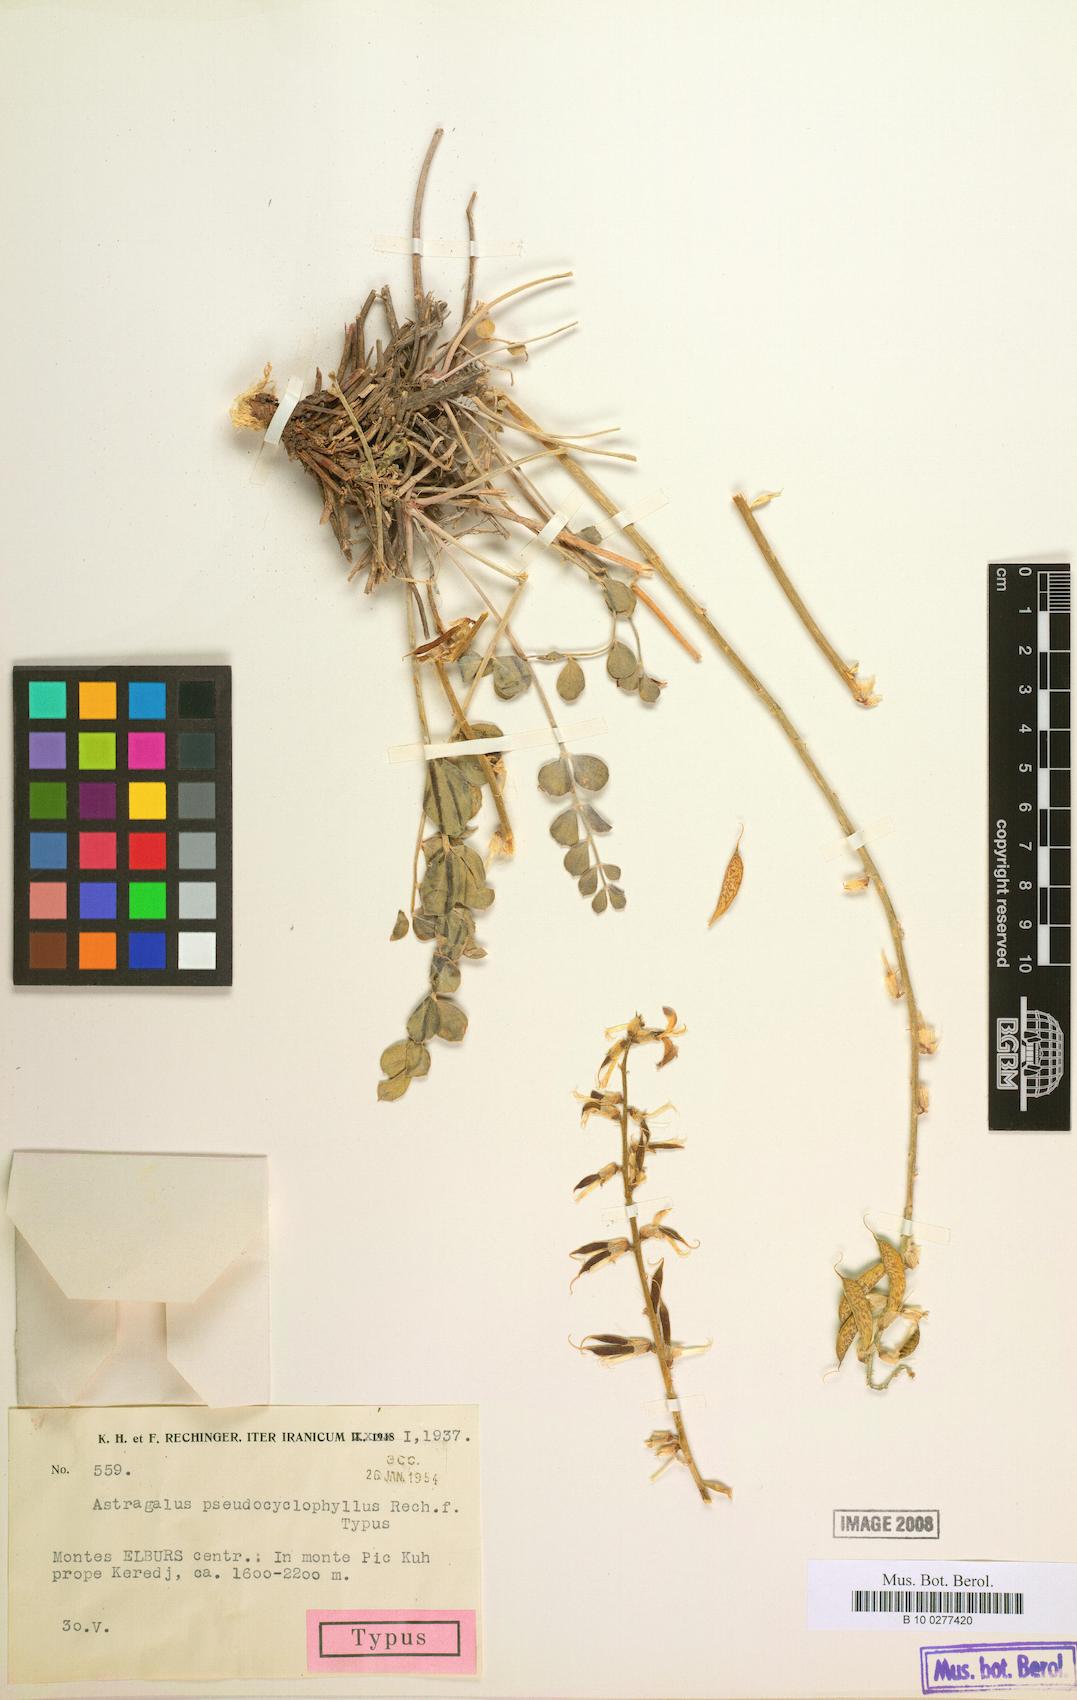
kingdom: Plantae
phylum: Tracheophyta
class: Magnoliopsida
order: Fabales
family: Fabaceae
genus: Astragalus
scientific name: Astragalus pseudocyclophyllus
